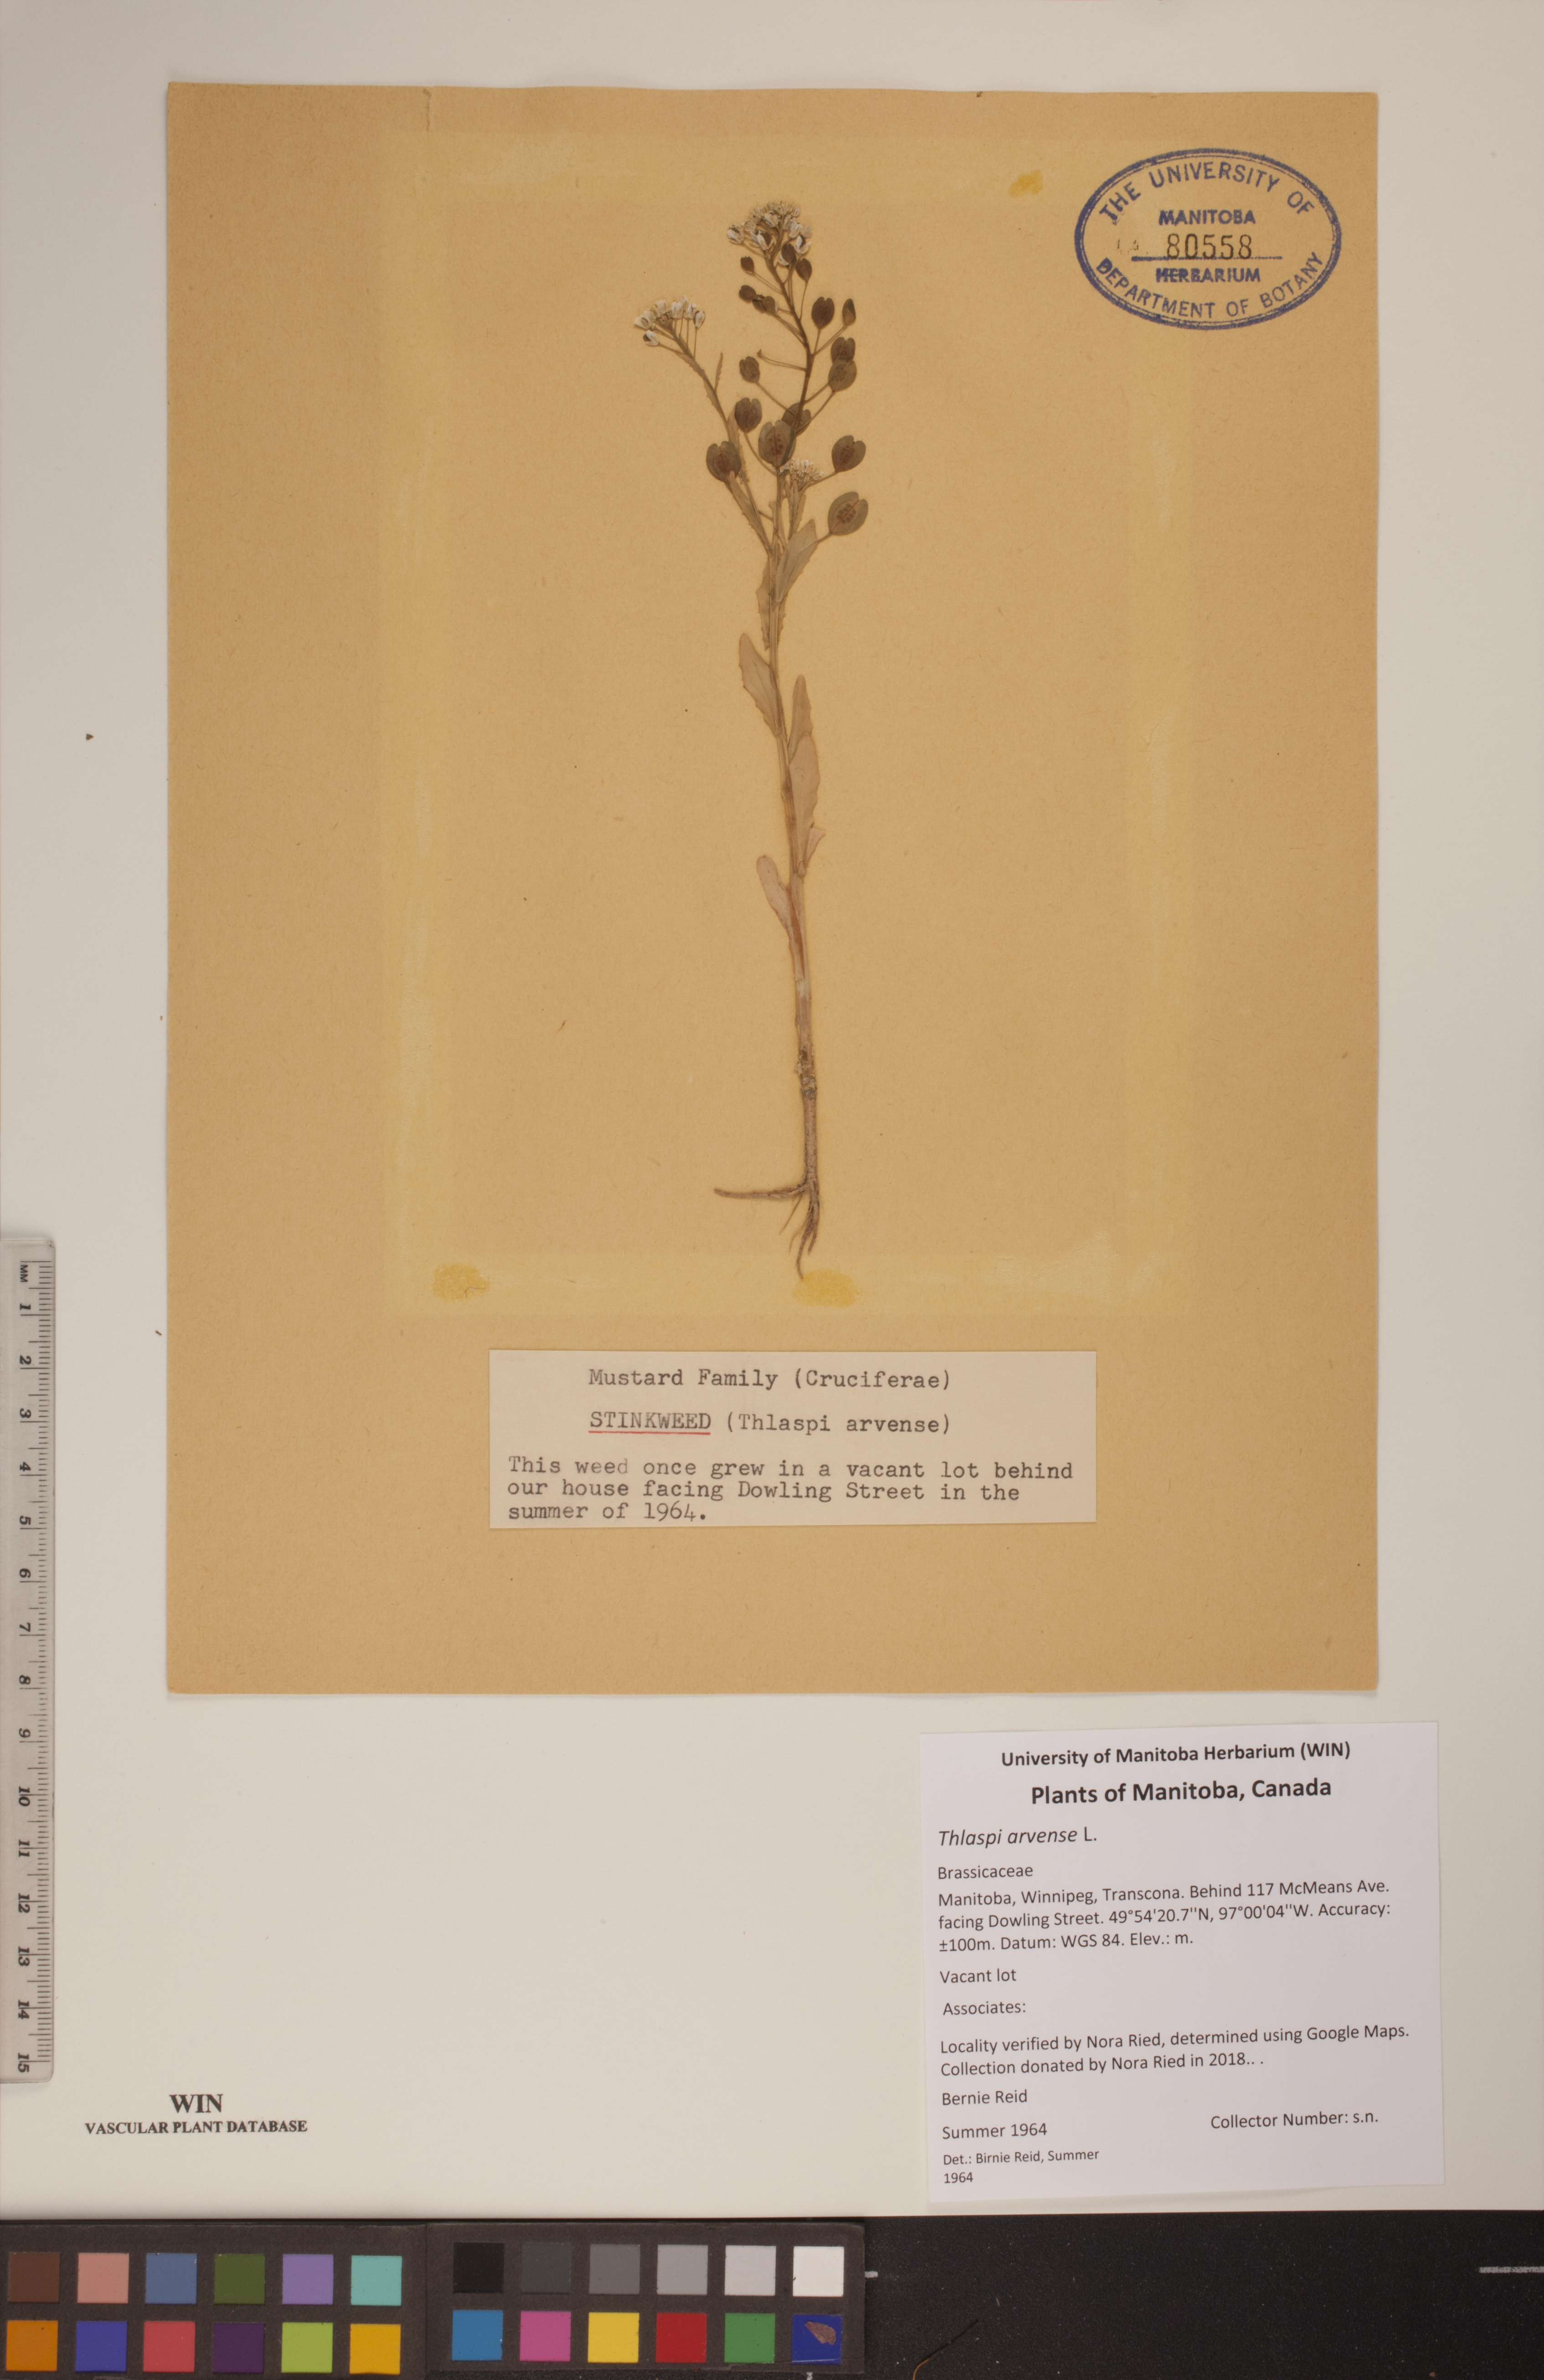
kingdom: Plantae
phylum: Tracheophyta
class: Magnoliopsida
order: Brassicales
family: Brassicaceae
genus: Thlaspi
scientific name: Thlaspi arvense
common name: Field pennycress
